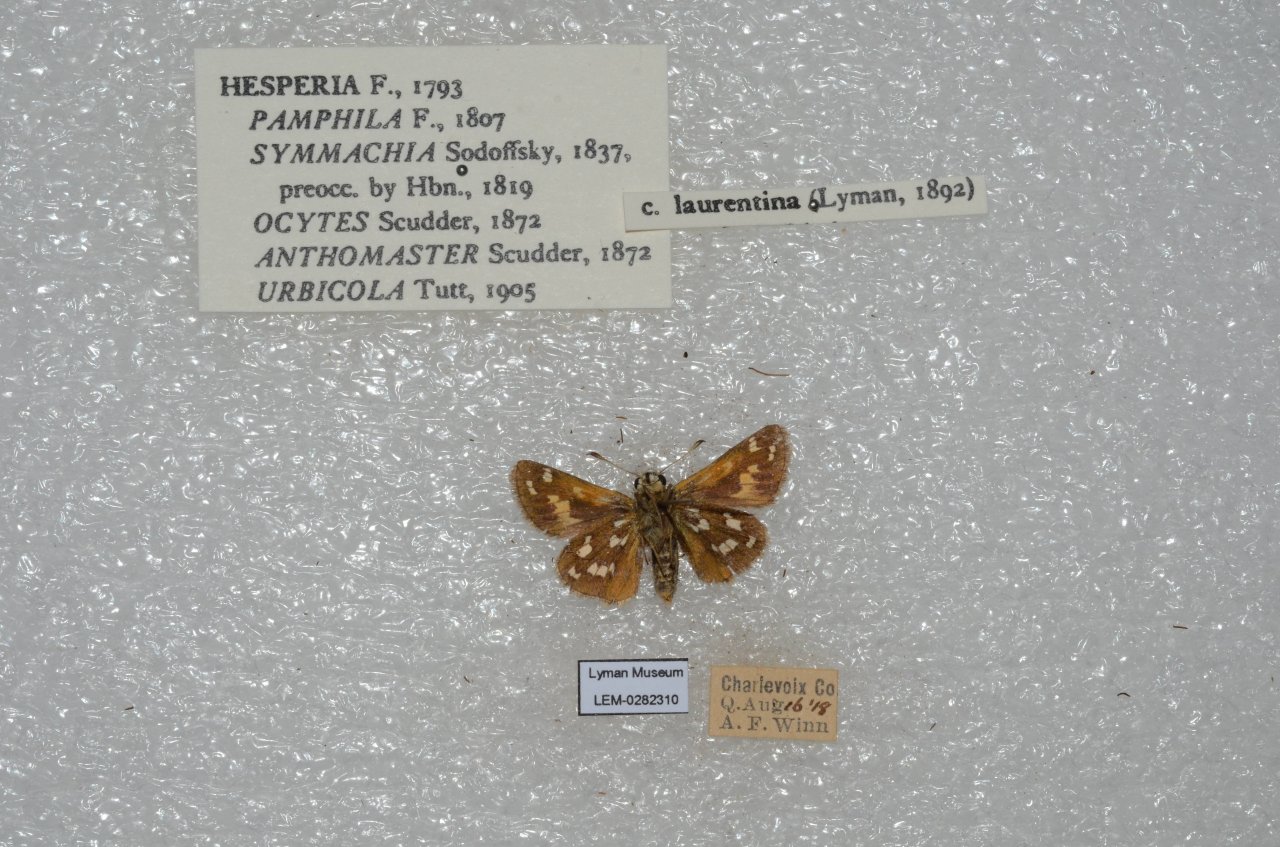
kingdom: Animalia
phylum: Arthropoda
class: Insecta
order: Lepidoptera
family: Hesperiidae
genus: Hesperia
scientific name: Hesperia comma
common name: Common Branded Skipper
